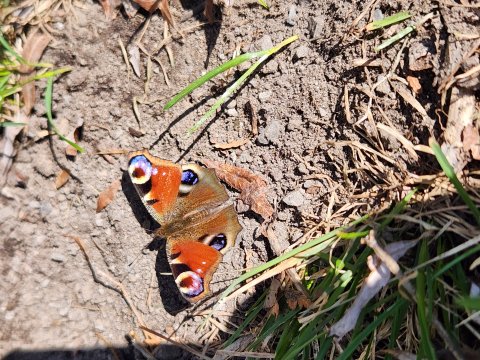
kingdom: Animalia
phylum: Arthropoda
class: Insecta
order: Lepidoptera
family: Nymphalidae
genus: Aglais
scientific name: Aglais io
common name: European Peacock
